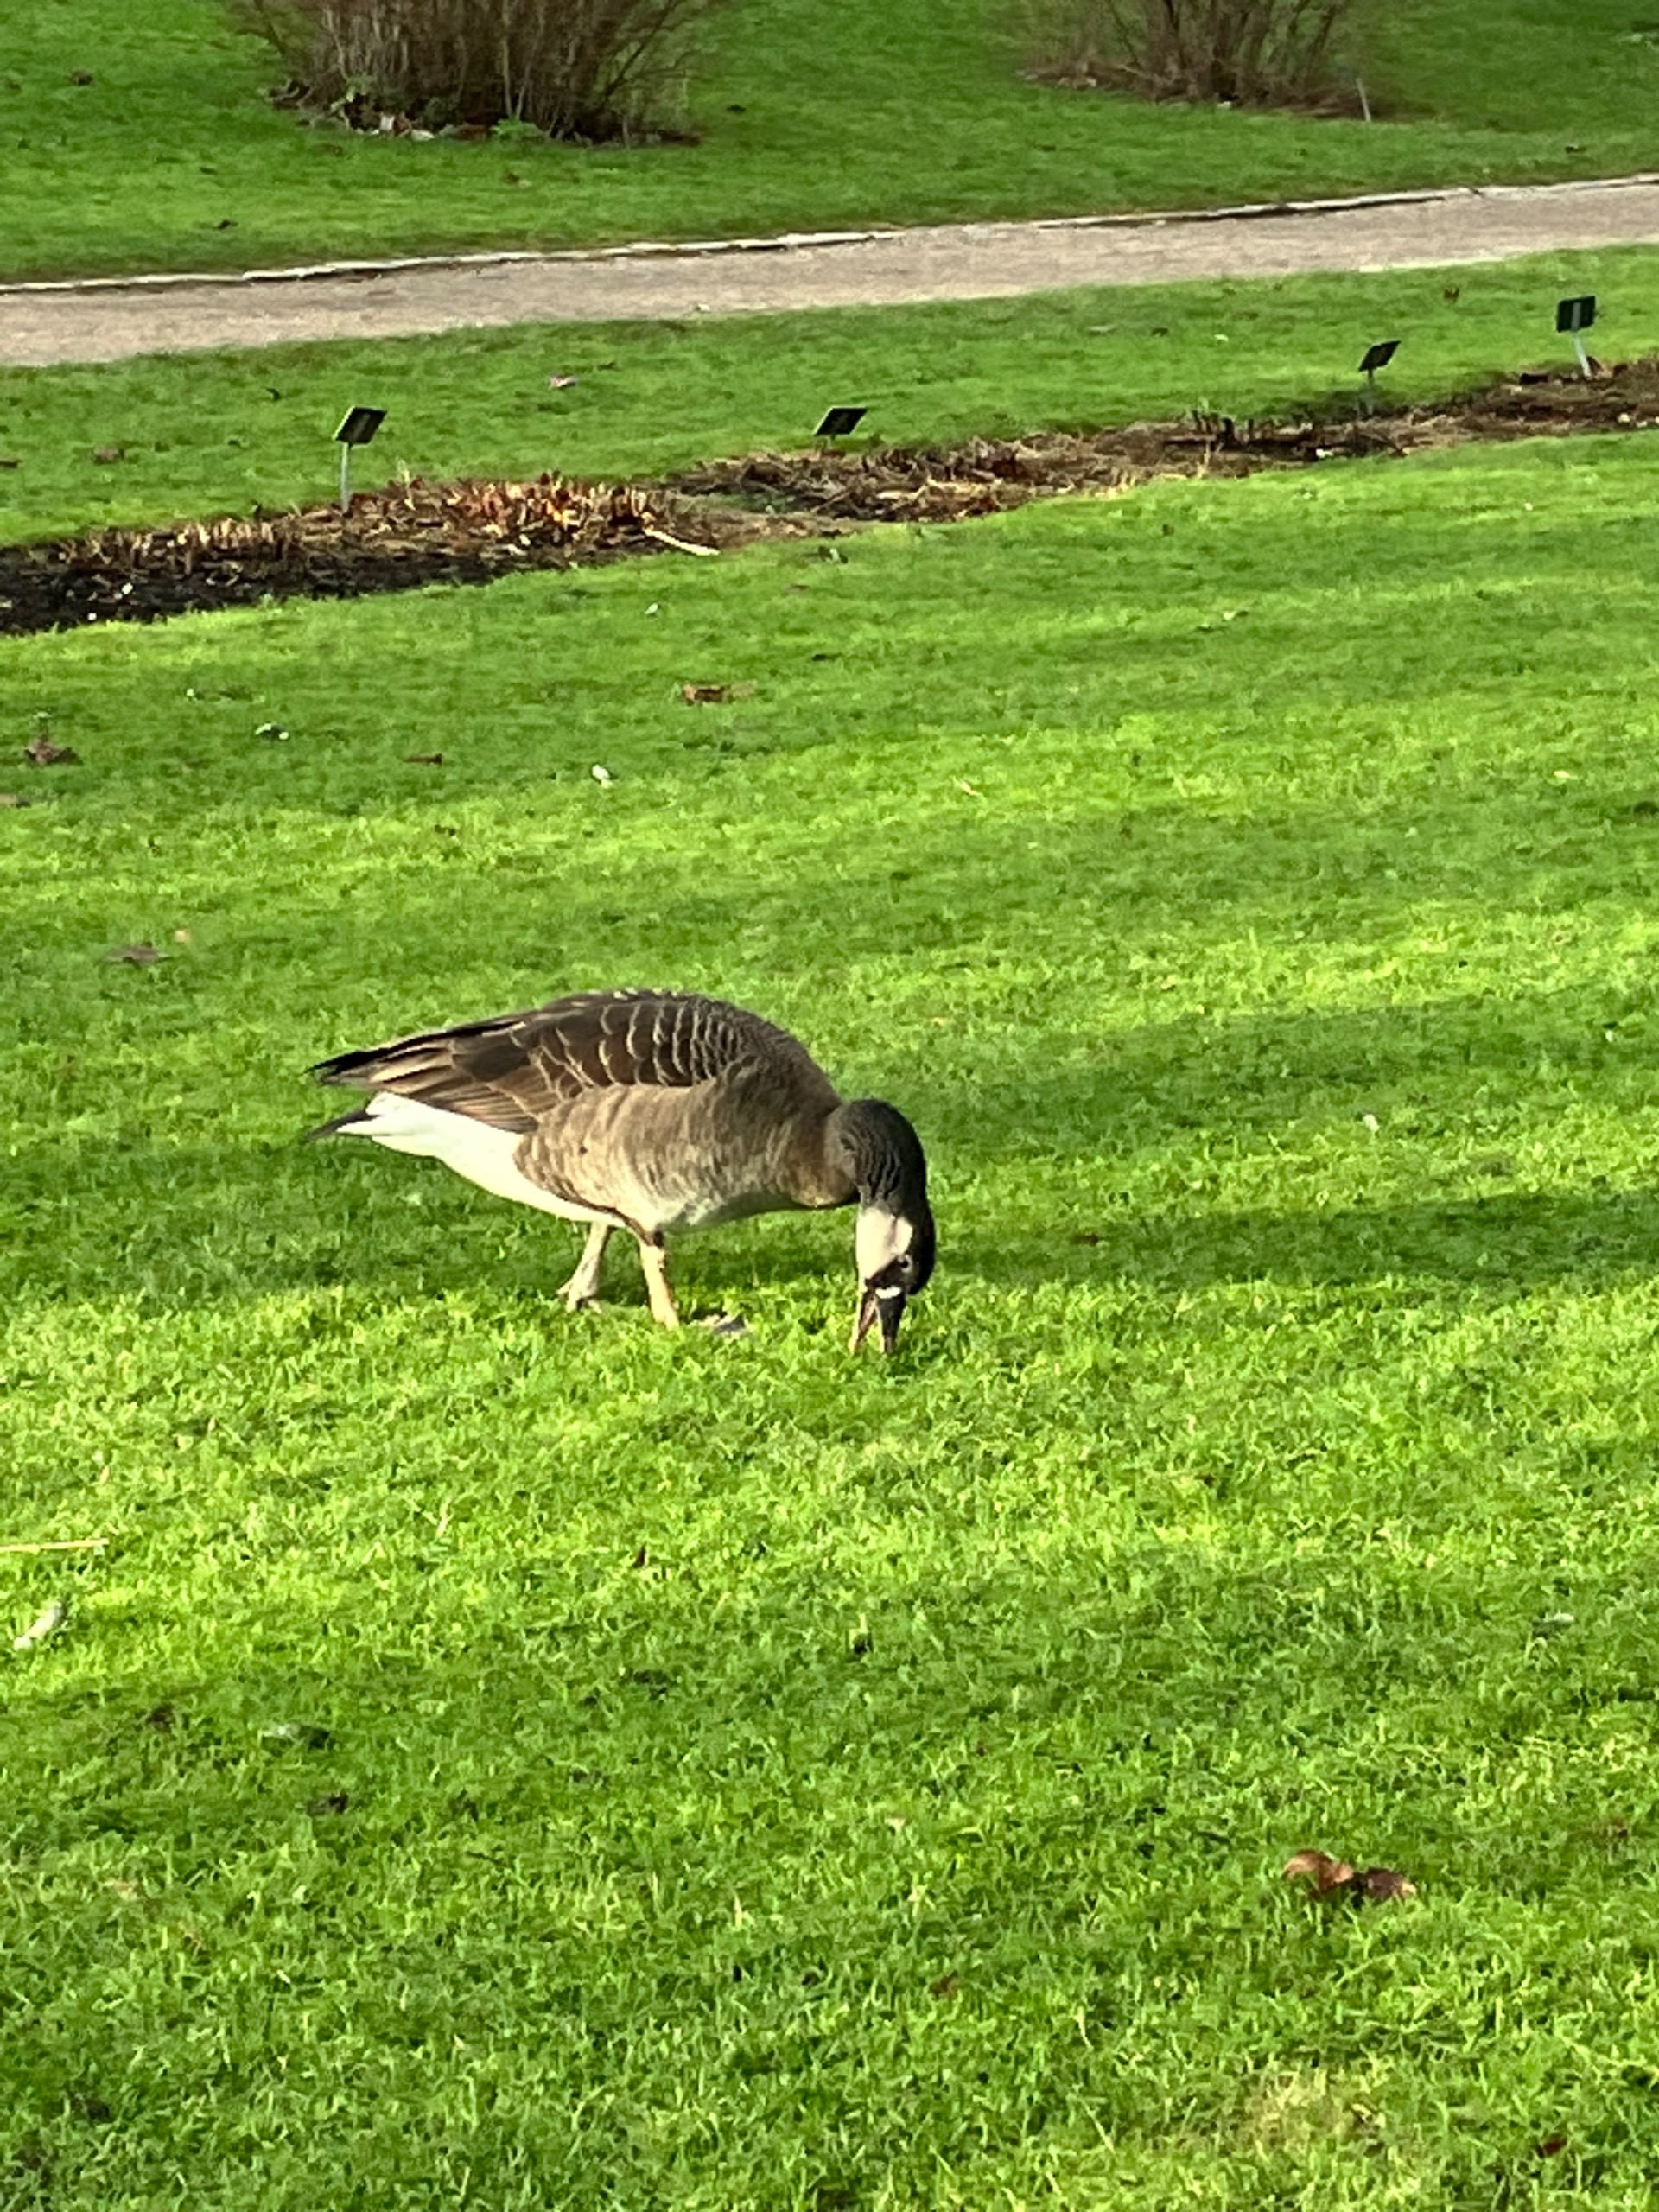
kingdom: Animalia
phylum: Chordata
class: Aves
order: Anseriformes
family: Anatidae
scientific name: Anatidae
